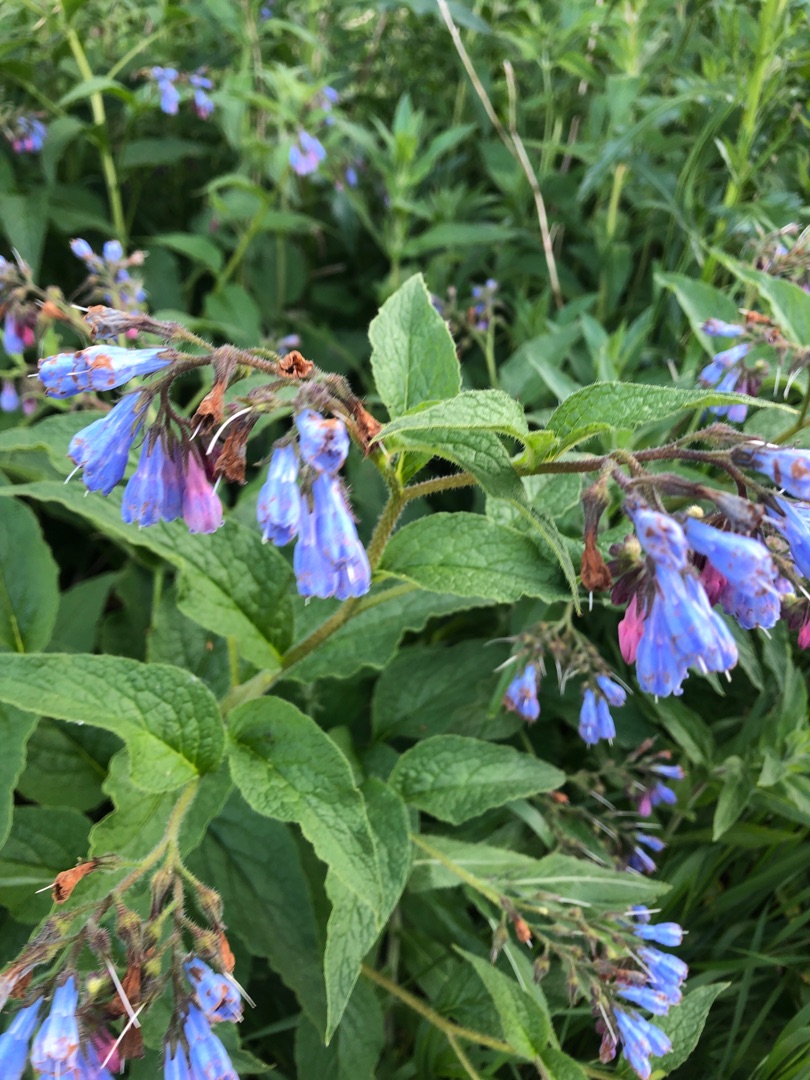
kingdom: Plantae
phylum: Tracheophyta
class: Magnoliopsida
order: Boraginales
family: Boraginaceae
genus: Symphytum
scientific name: Symphytum uplandicum
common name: Foder-kulsukker
